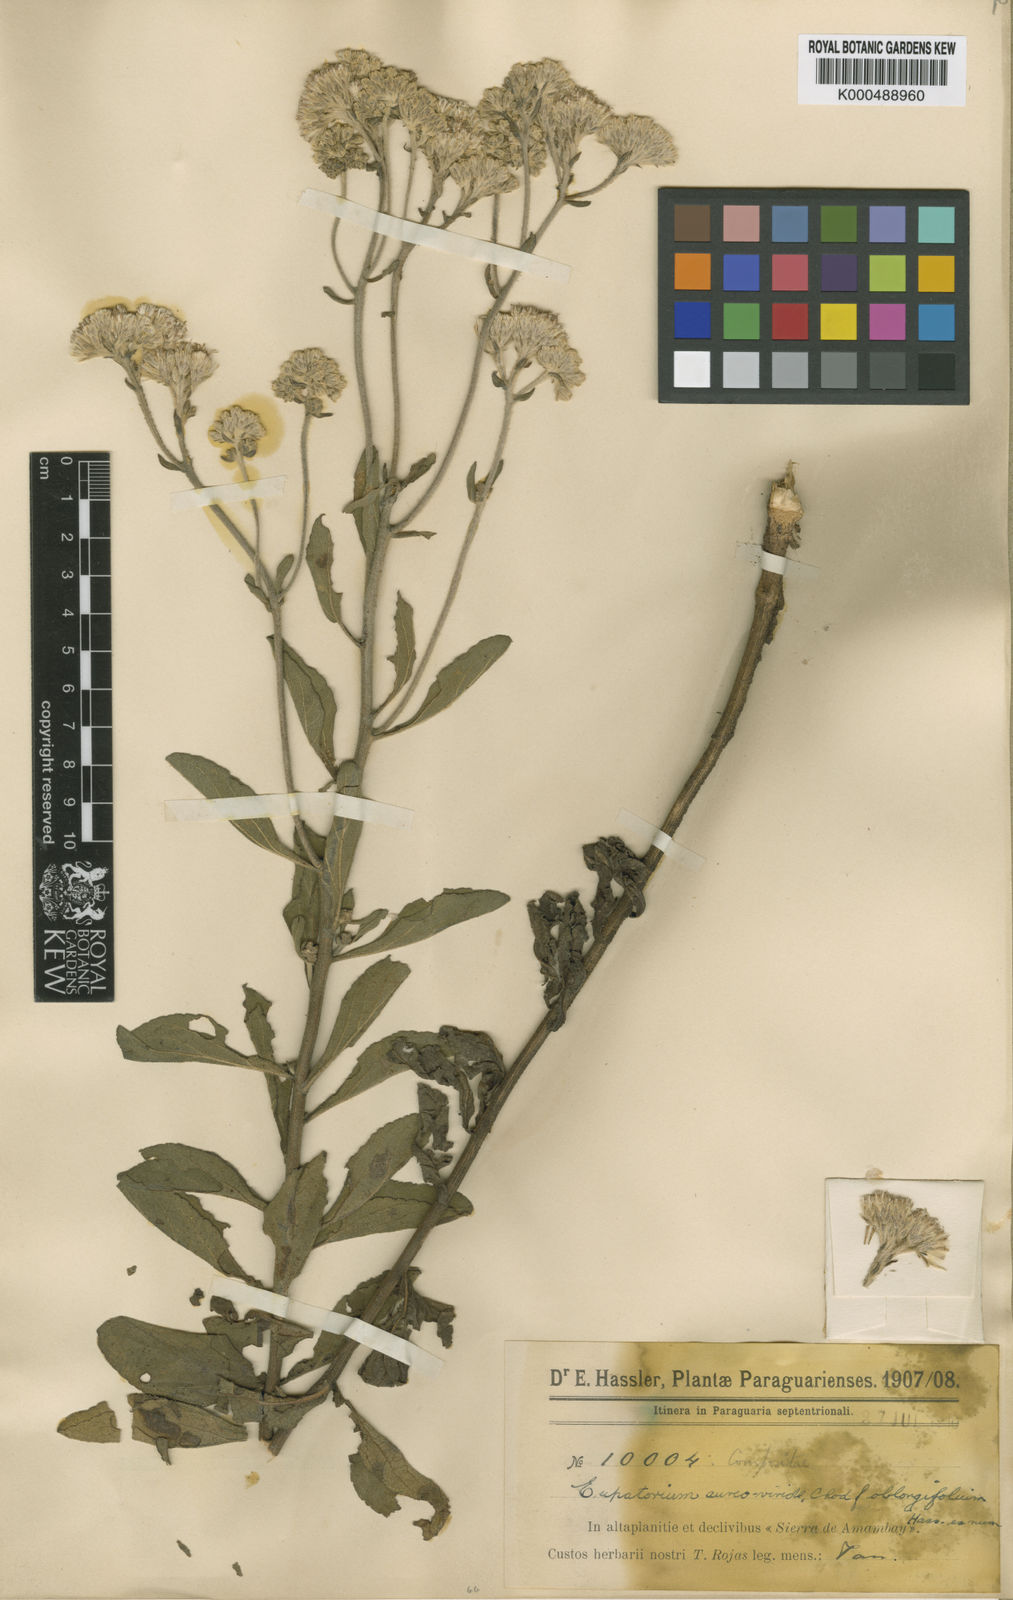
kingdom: Plantae
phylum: Tracheophyta
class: Magnoliopsida
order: Asterales
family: Asteraceae
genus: Gyptis
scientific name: Gyptis lanigera
